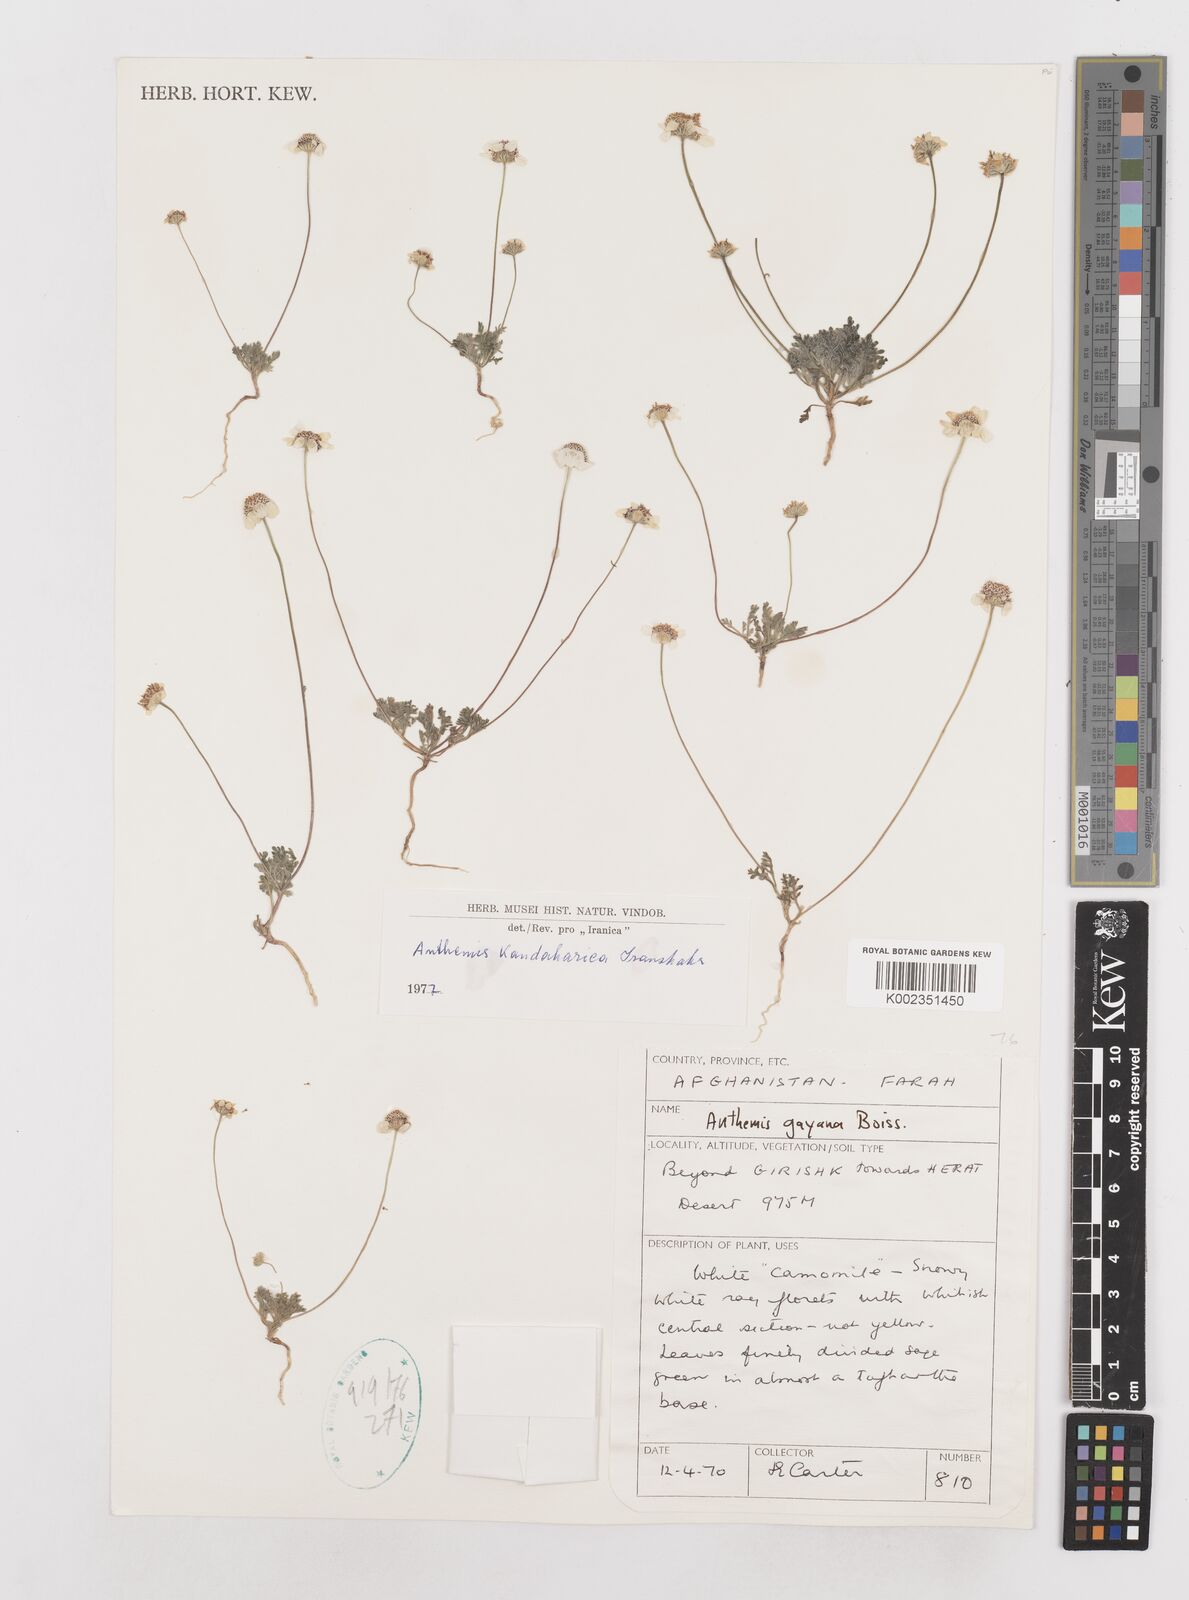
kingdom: Plantae
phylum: Tracheophyta
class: Magnoliopsida
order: Asterales
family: Asteraceae
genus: Anthemis
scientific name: Anthemis gayana
